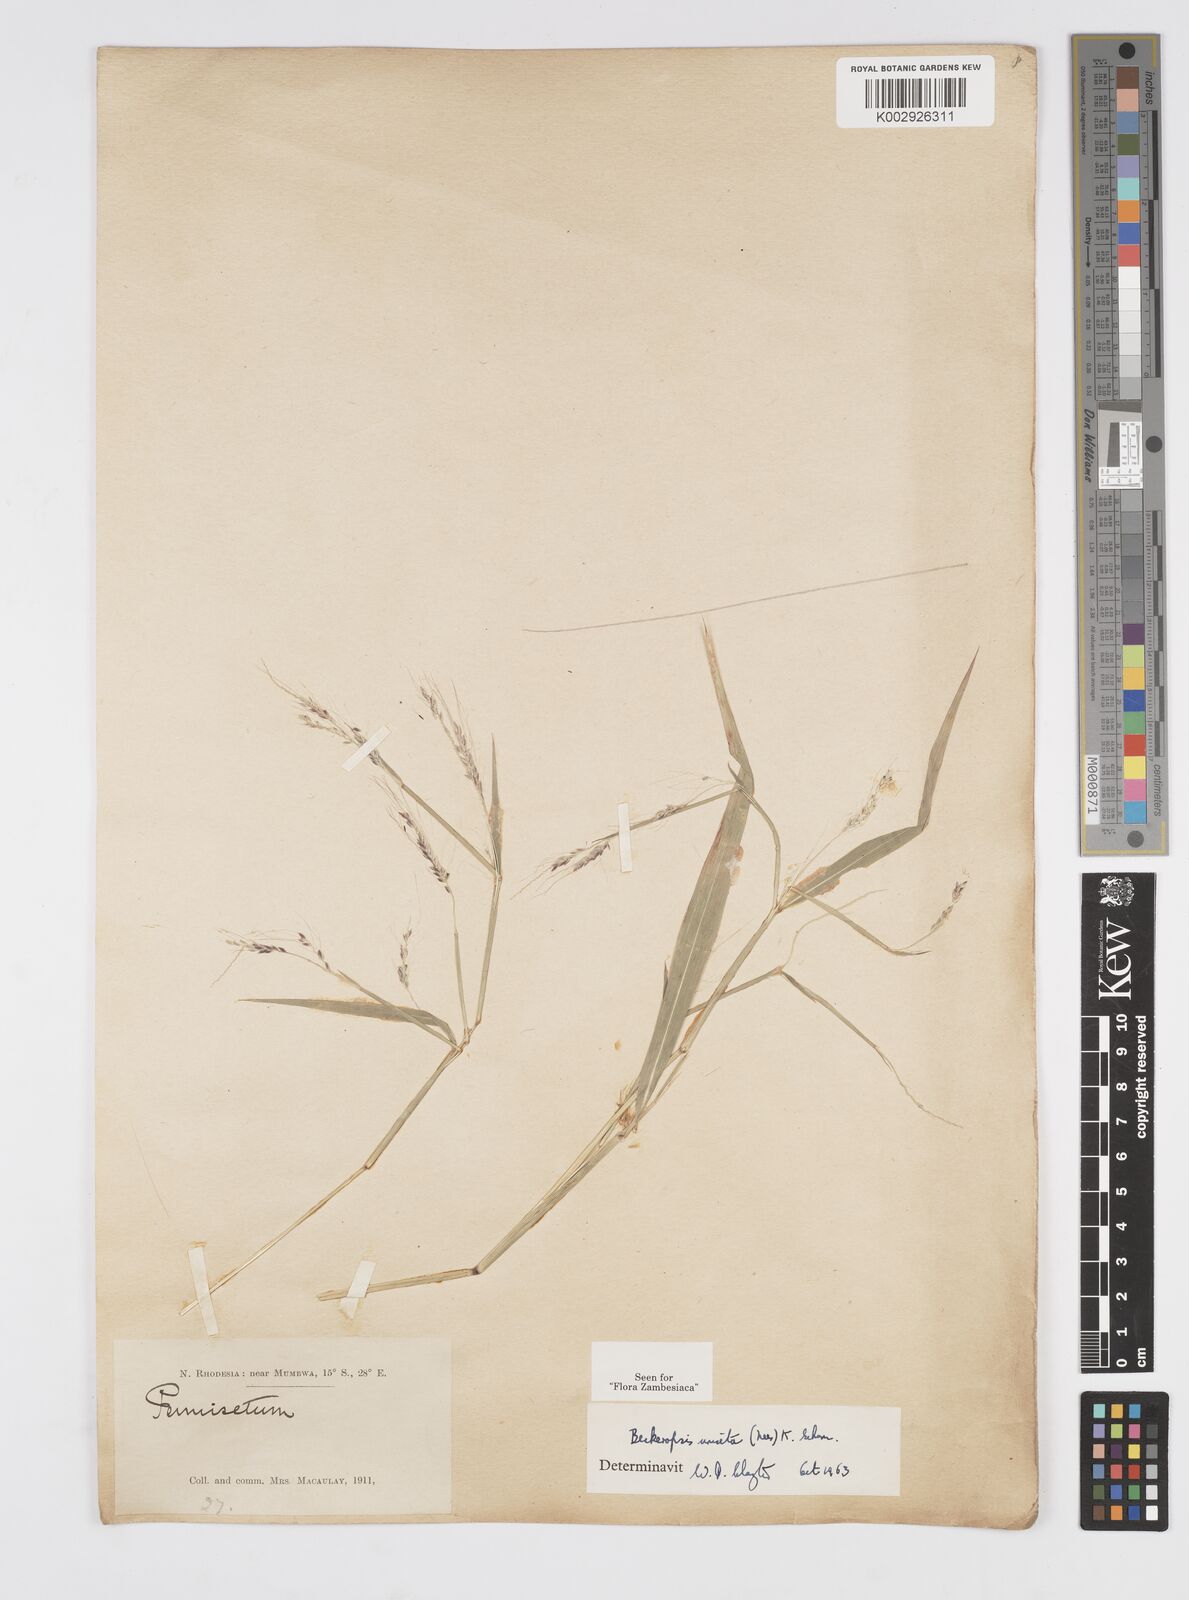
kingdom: Plantae
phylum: Tracheophyta
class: Liliopsida
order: Poales
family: Poaceae
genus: Cenchrus
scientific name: Cenchrus unisetus
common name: Natal grass
